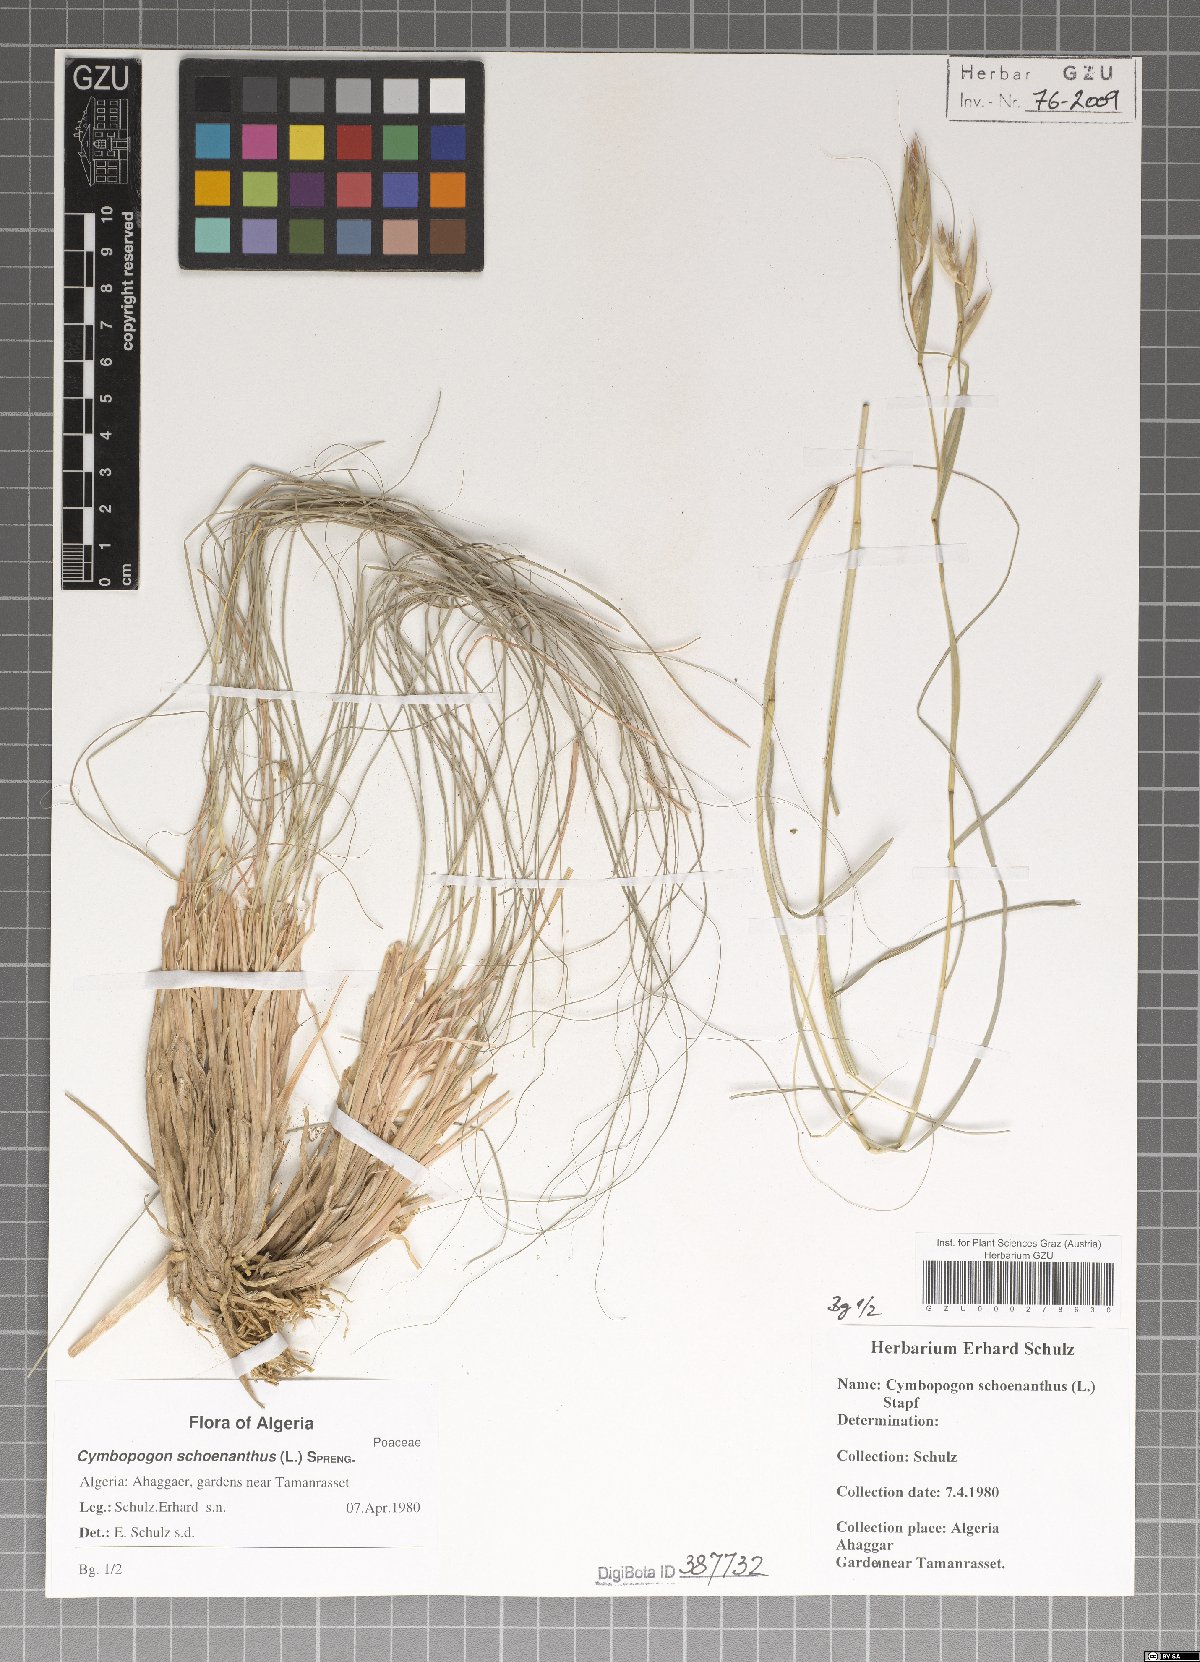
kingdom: Plantae
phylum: Tracheophyta
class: Liliopsida
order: Poales
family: Poaceae
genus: Cymbopogon
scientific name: Cymbopogon schoenanthus
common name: Geranium grass
